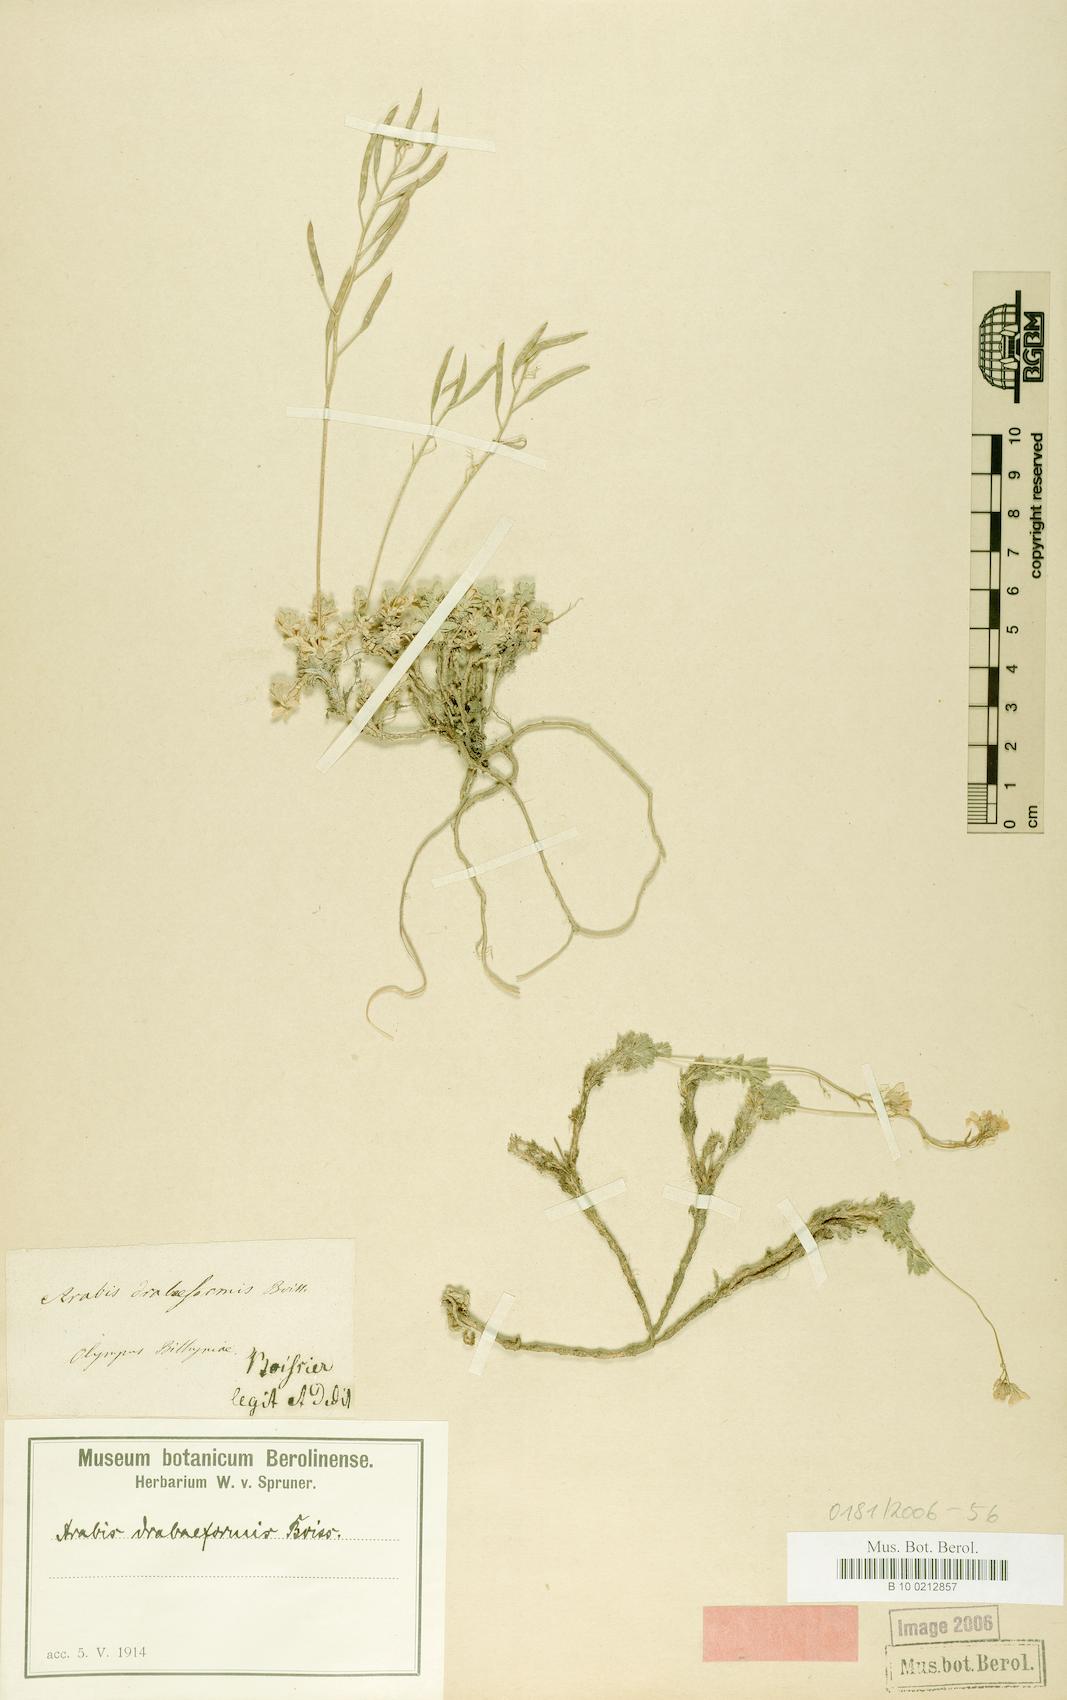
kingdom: Plantae
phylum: Tracheophyta
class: Magnoliopsida
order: Brassicales
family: Brassicaceae
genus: Arabis
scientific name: Arabis drabaeformis
